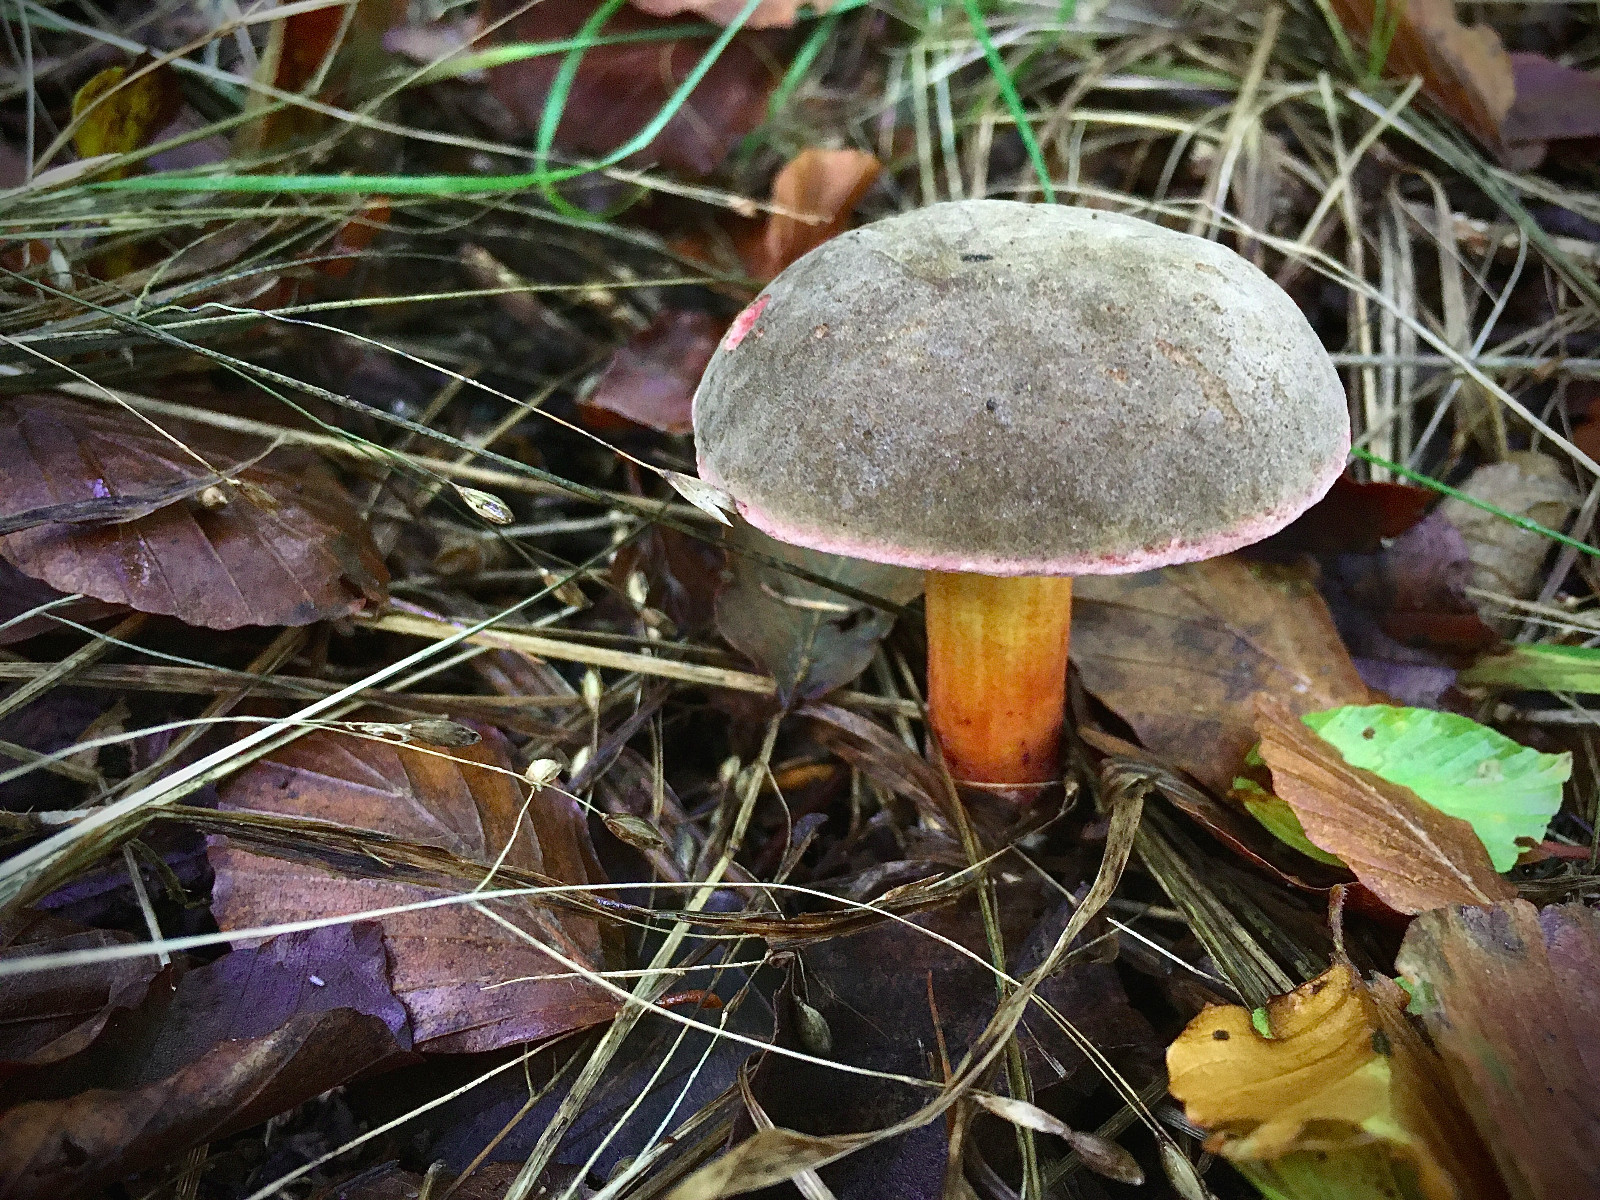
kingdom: Fungi
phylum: Basidiomycota
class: Agaricomycetes
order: Boletales
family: Boletaceae
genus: Xerocomellus
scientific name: Xerocomellus pruinatus
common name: dugget rørhat
